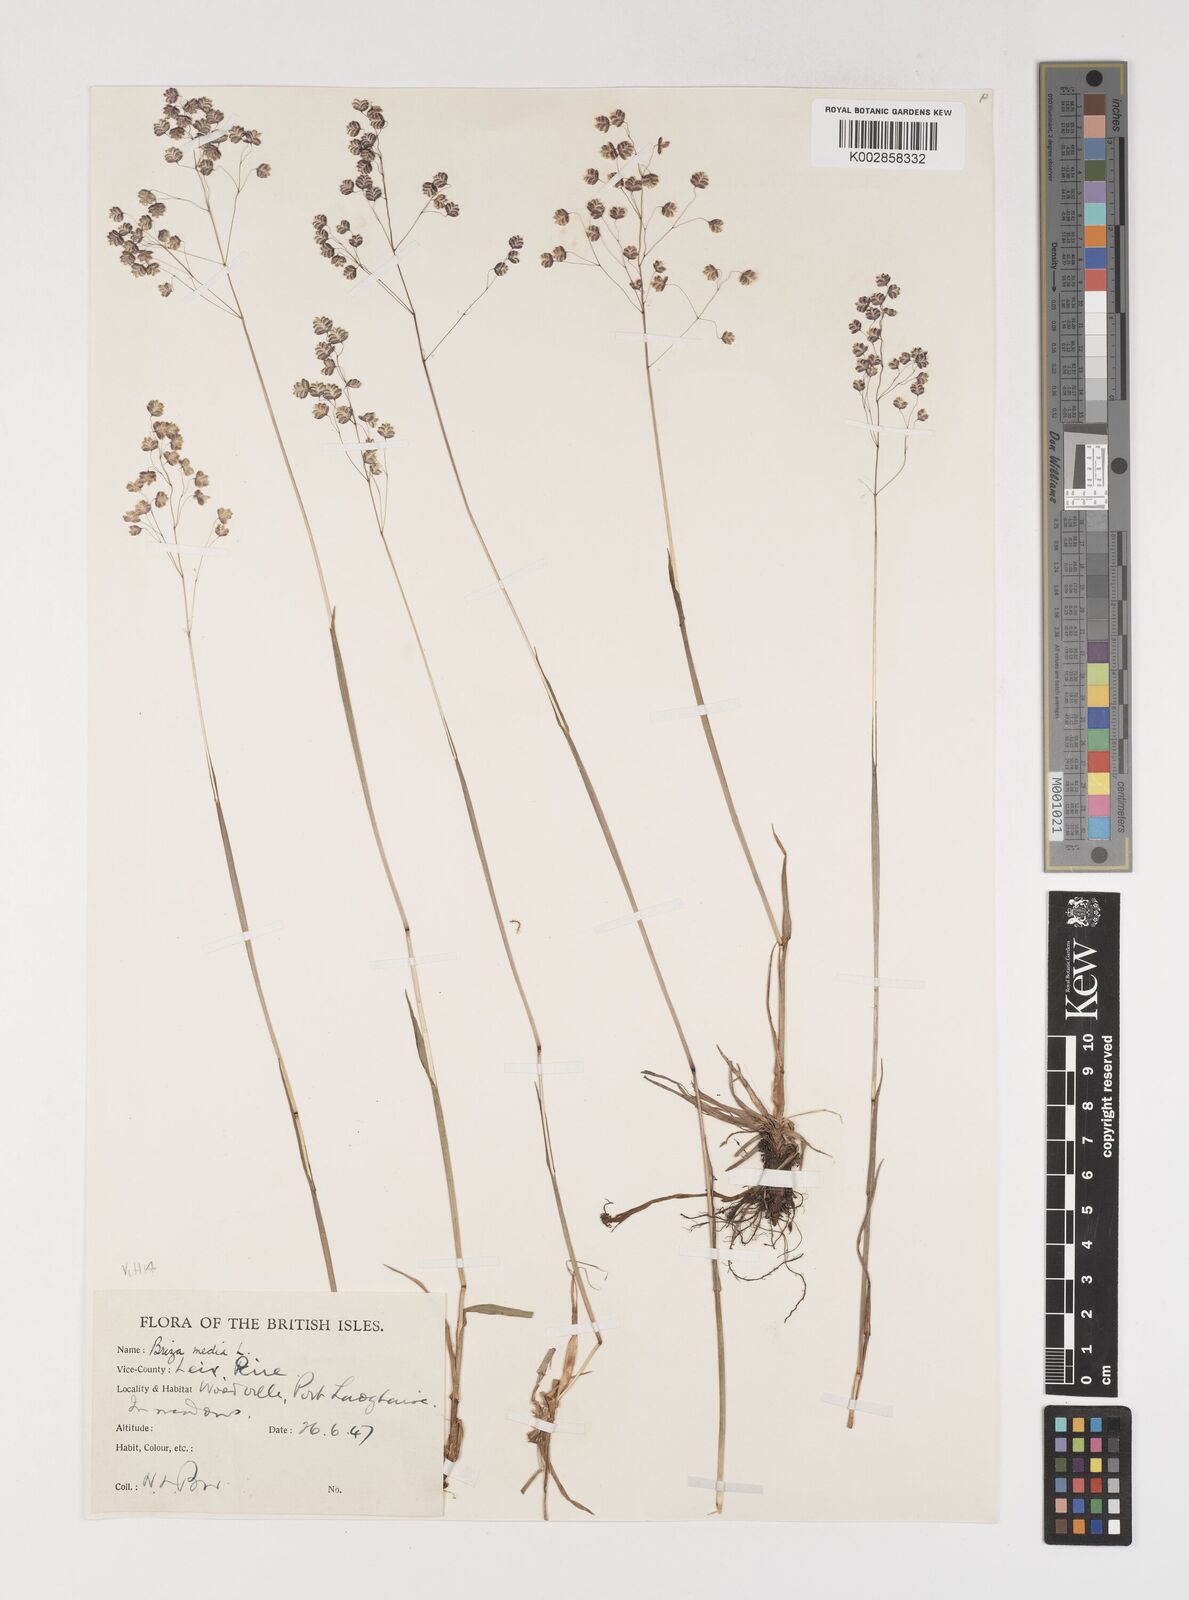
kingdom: Plantae
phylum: Tracheophyta
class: Liliopsida
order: Poales
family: Poaceae
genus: Briza
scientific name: Briza media
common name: Quaking grass
